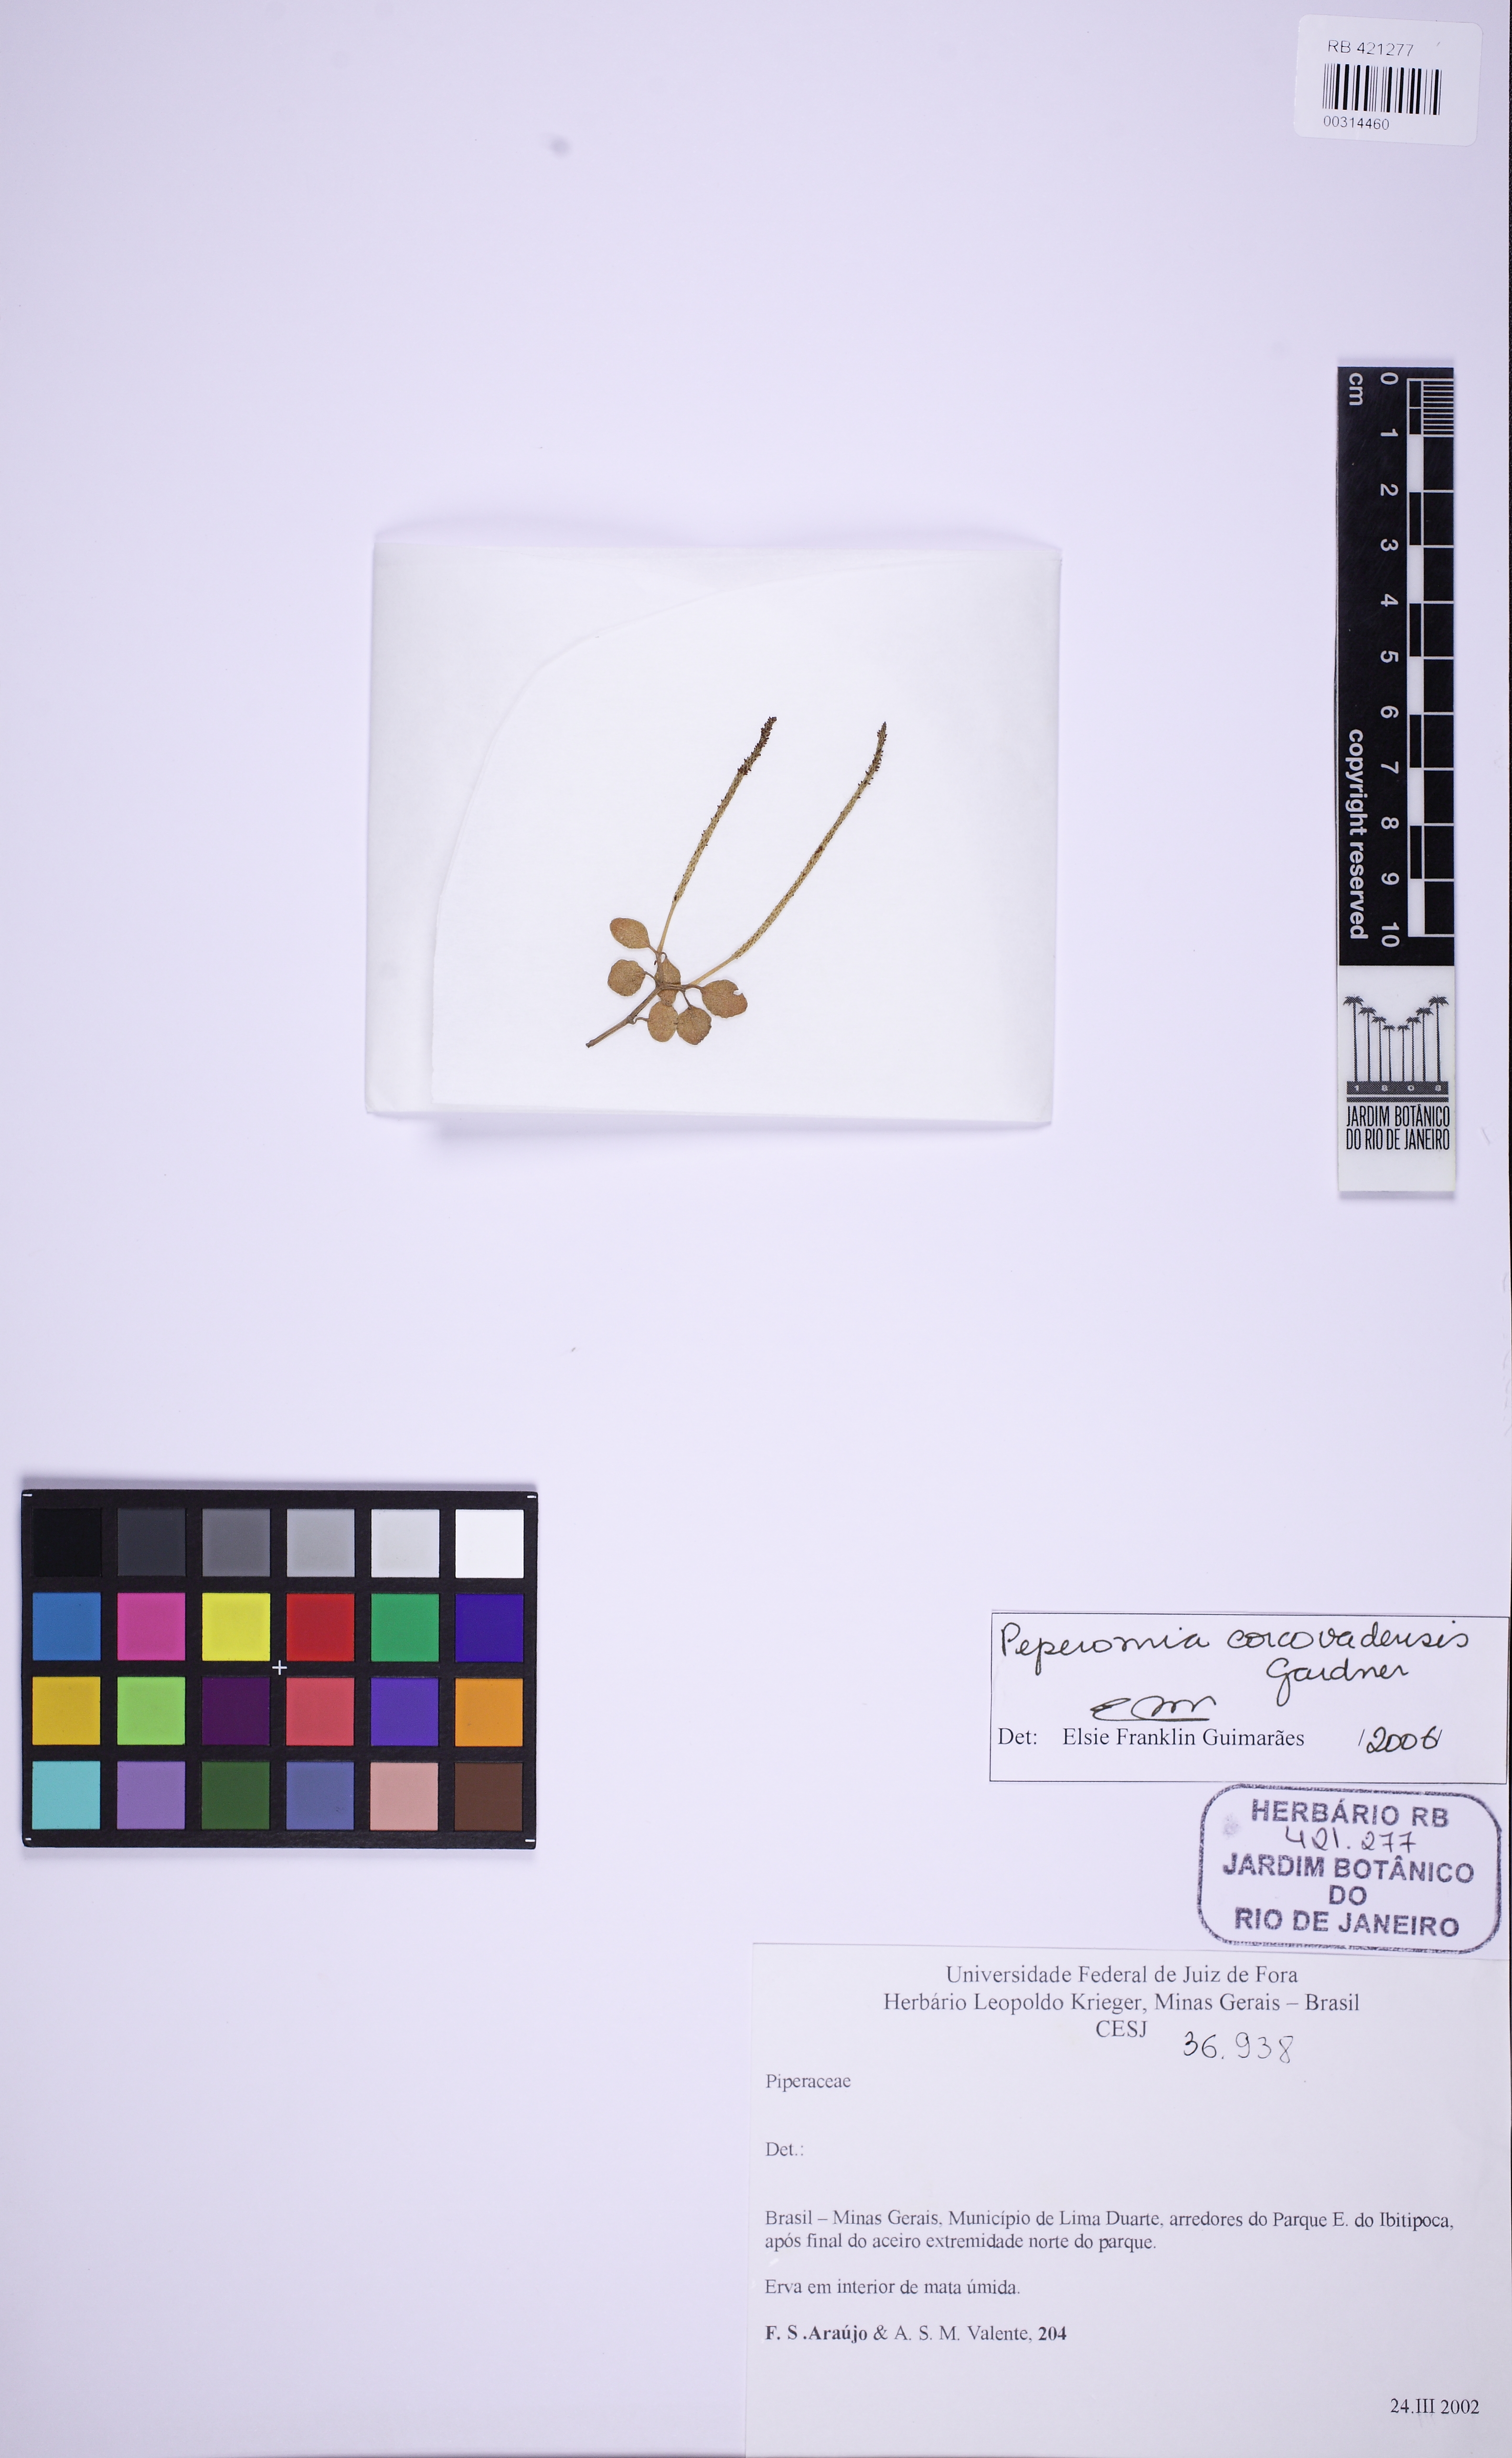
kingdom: Plantae
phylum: Tracheophyta
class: Magnoliopsida
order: Piperales
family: Piperaceae
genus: Peperomia
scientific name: Peperomia corcovadensis
